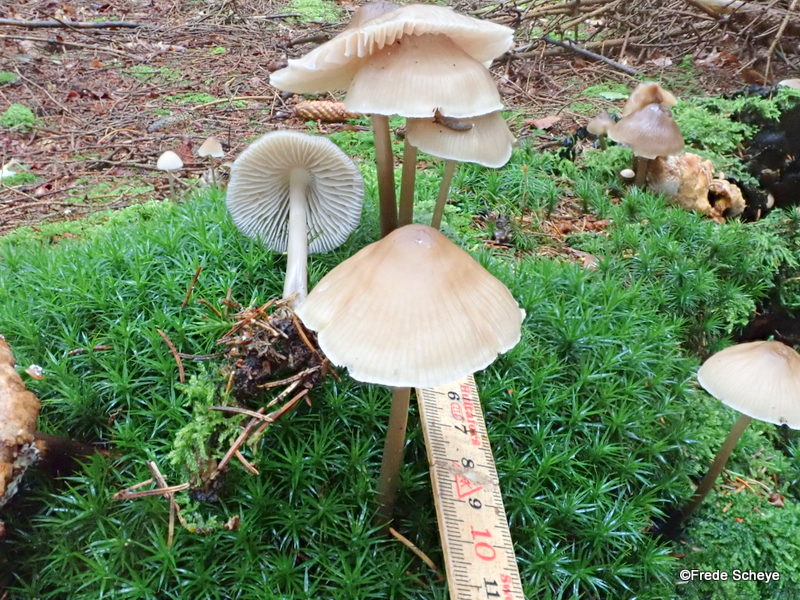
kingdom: Fungi
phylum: Basidiomycota
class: Agaricomycetes
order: Agaricales
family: Mycenaceae
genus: Mycena
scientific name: Mycena galericulata
